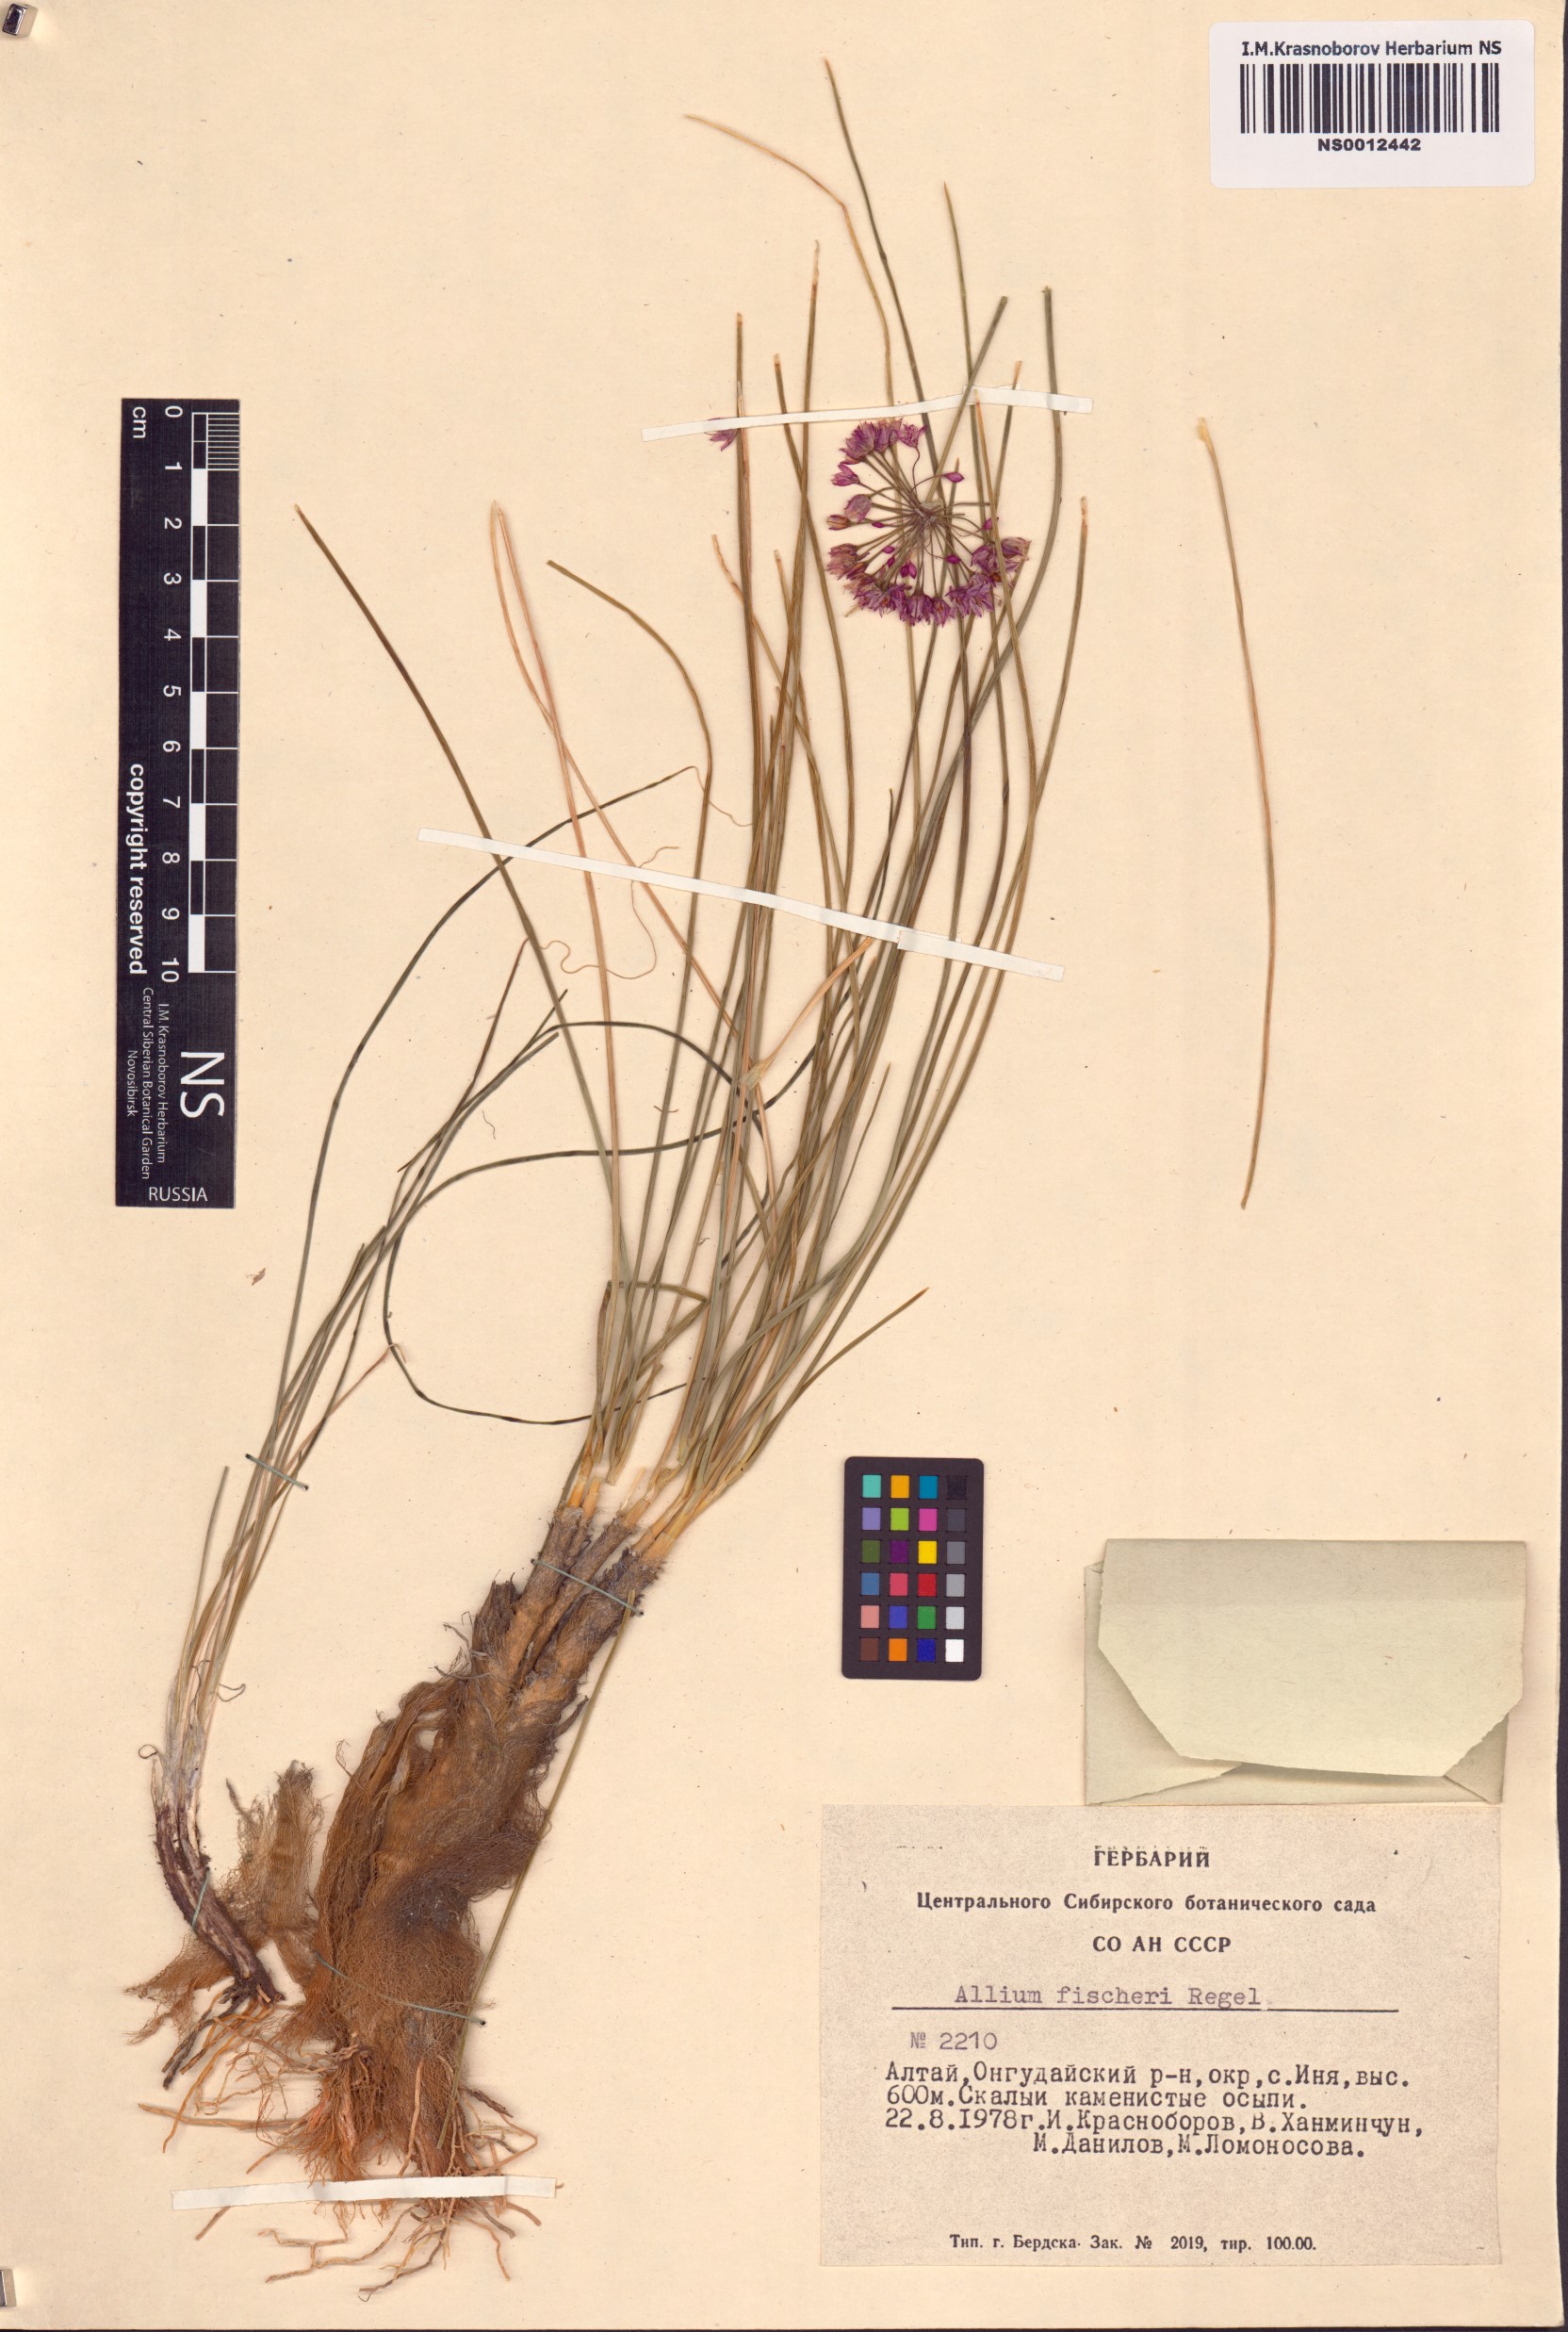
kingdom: Plantae
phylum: Tracheophyta
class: Liliopsida
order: Asparagales
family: Amaryllidaceae
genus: Allium
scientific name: Allium eduardi
